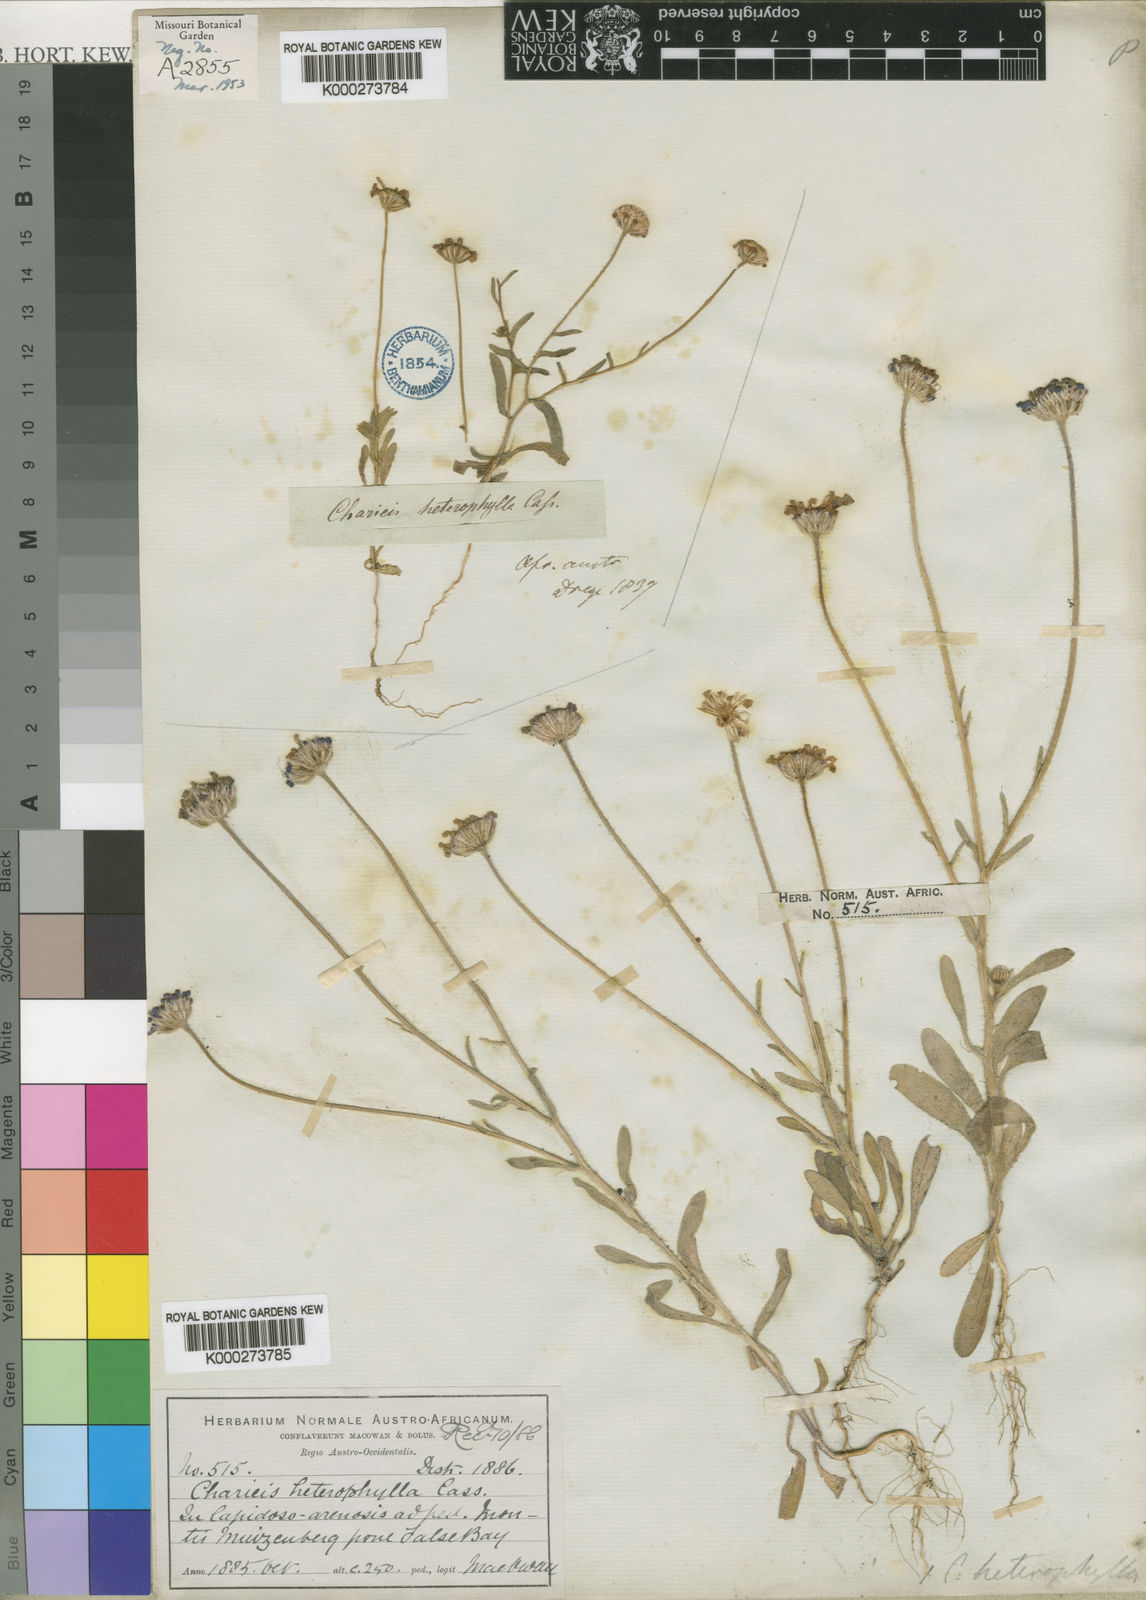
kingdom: Plantae
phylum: Tracheophyta
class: Magnoliopsida
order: Asterales
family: Asteraceae
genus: Felicia
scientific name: Felicia heterophylla
